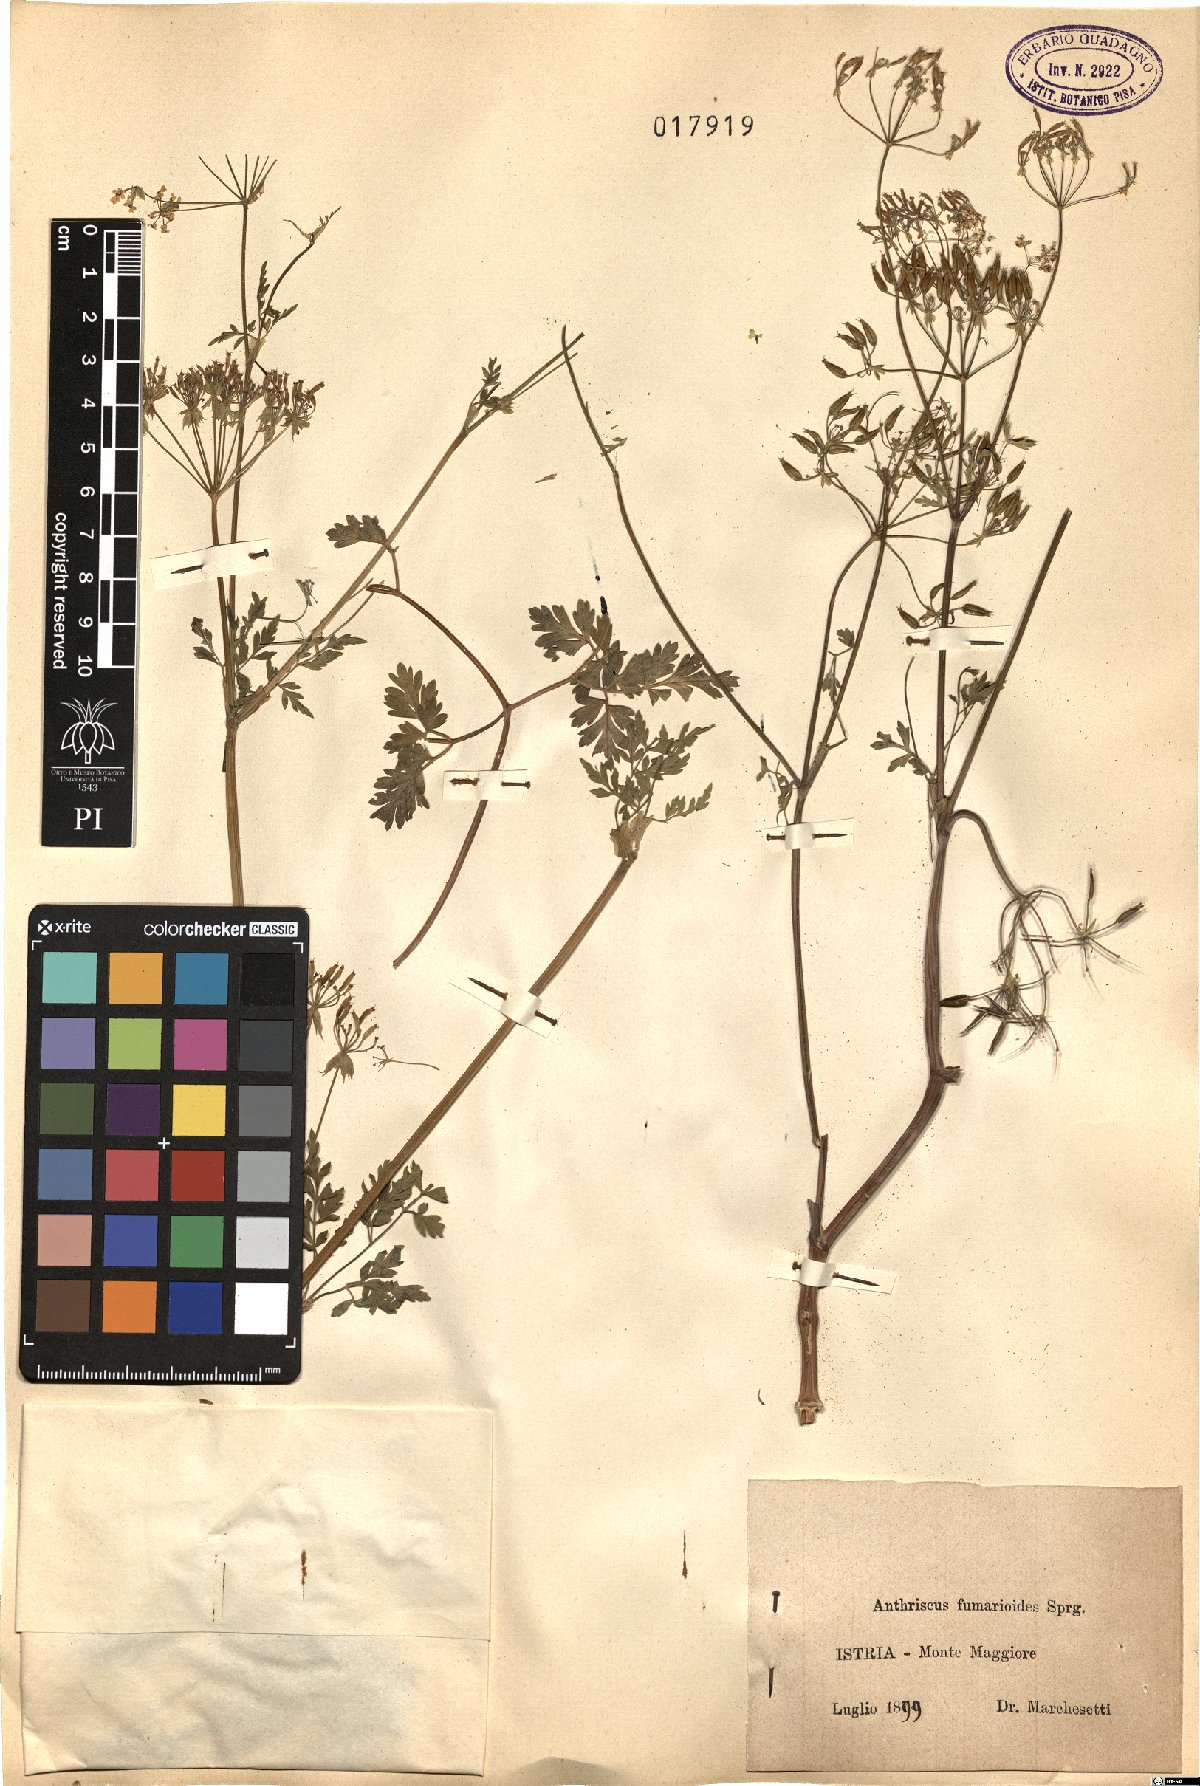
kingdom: Plantae
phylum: Tracheophyta
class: Magnoliopsida
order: Apiales
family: Apiaceae
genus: Anthriscus
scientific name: Anthriscus fumarioides
